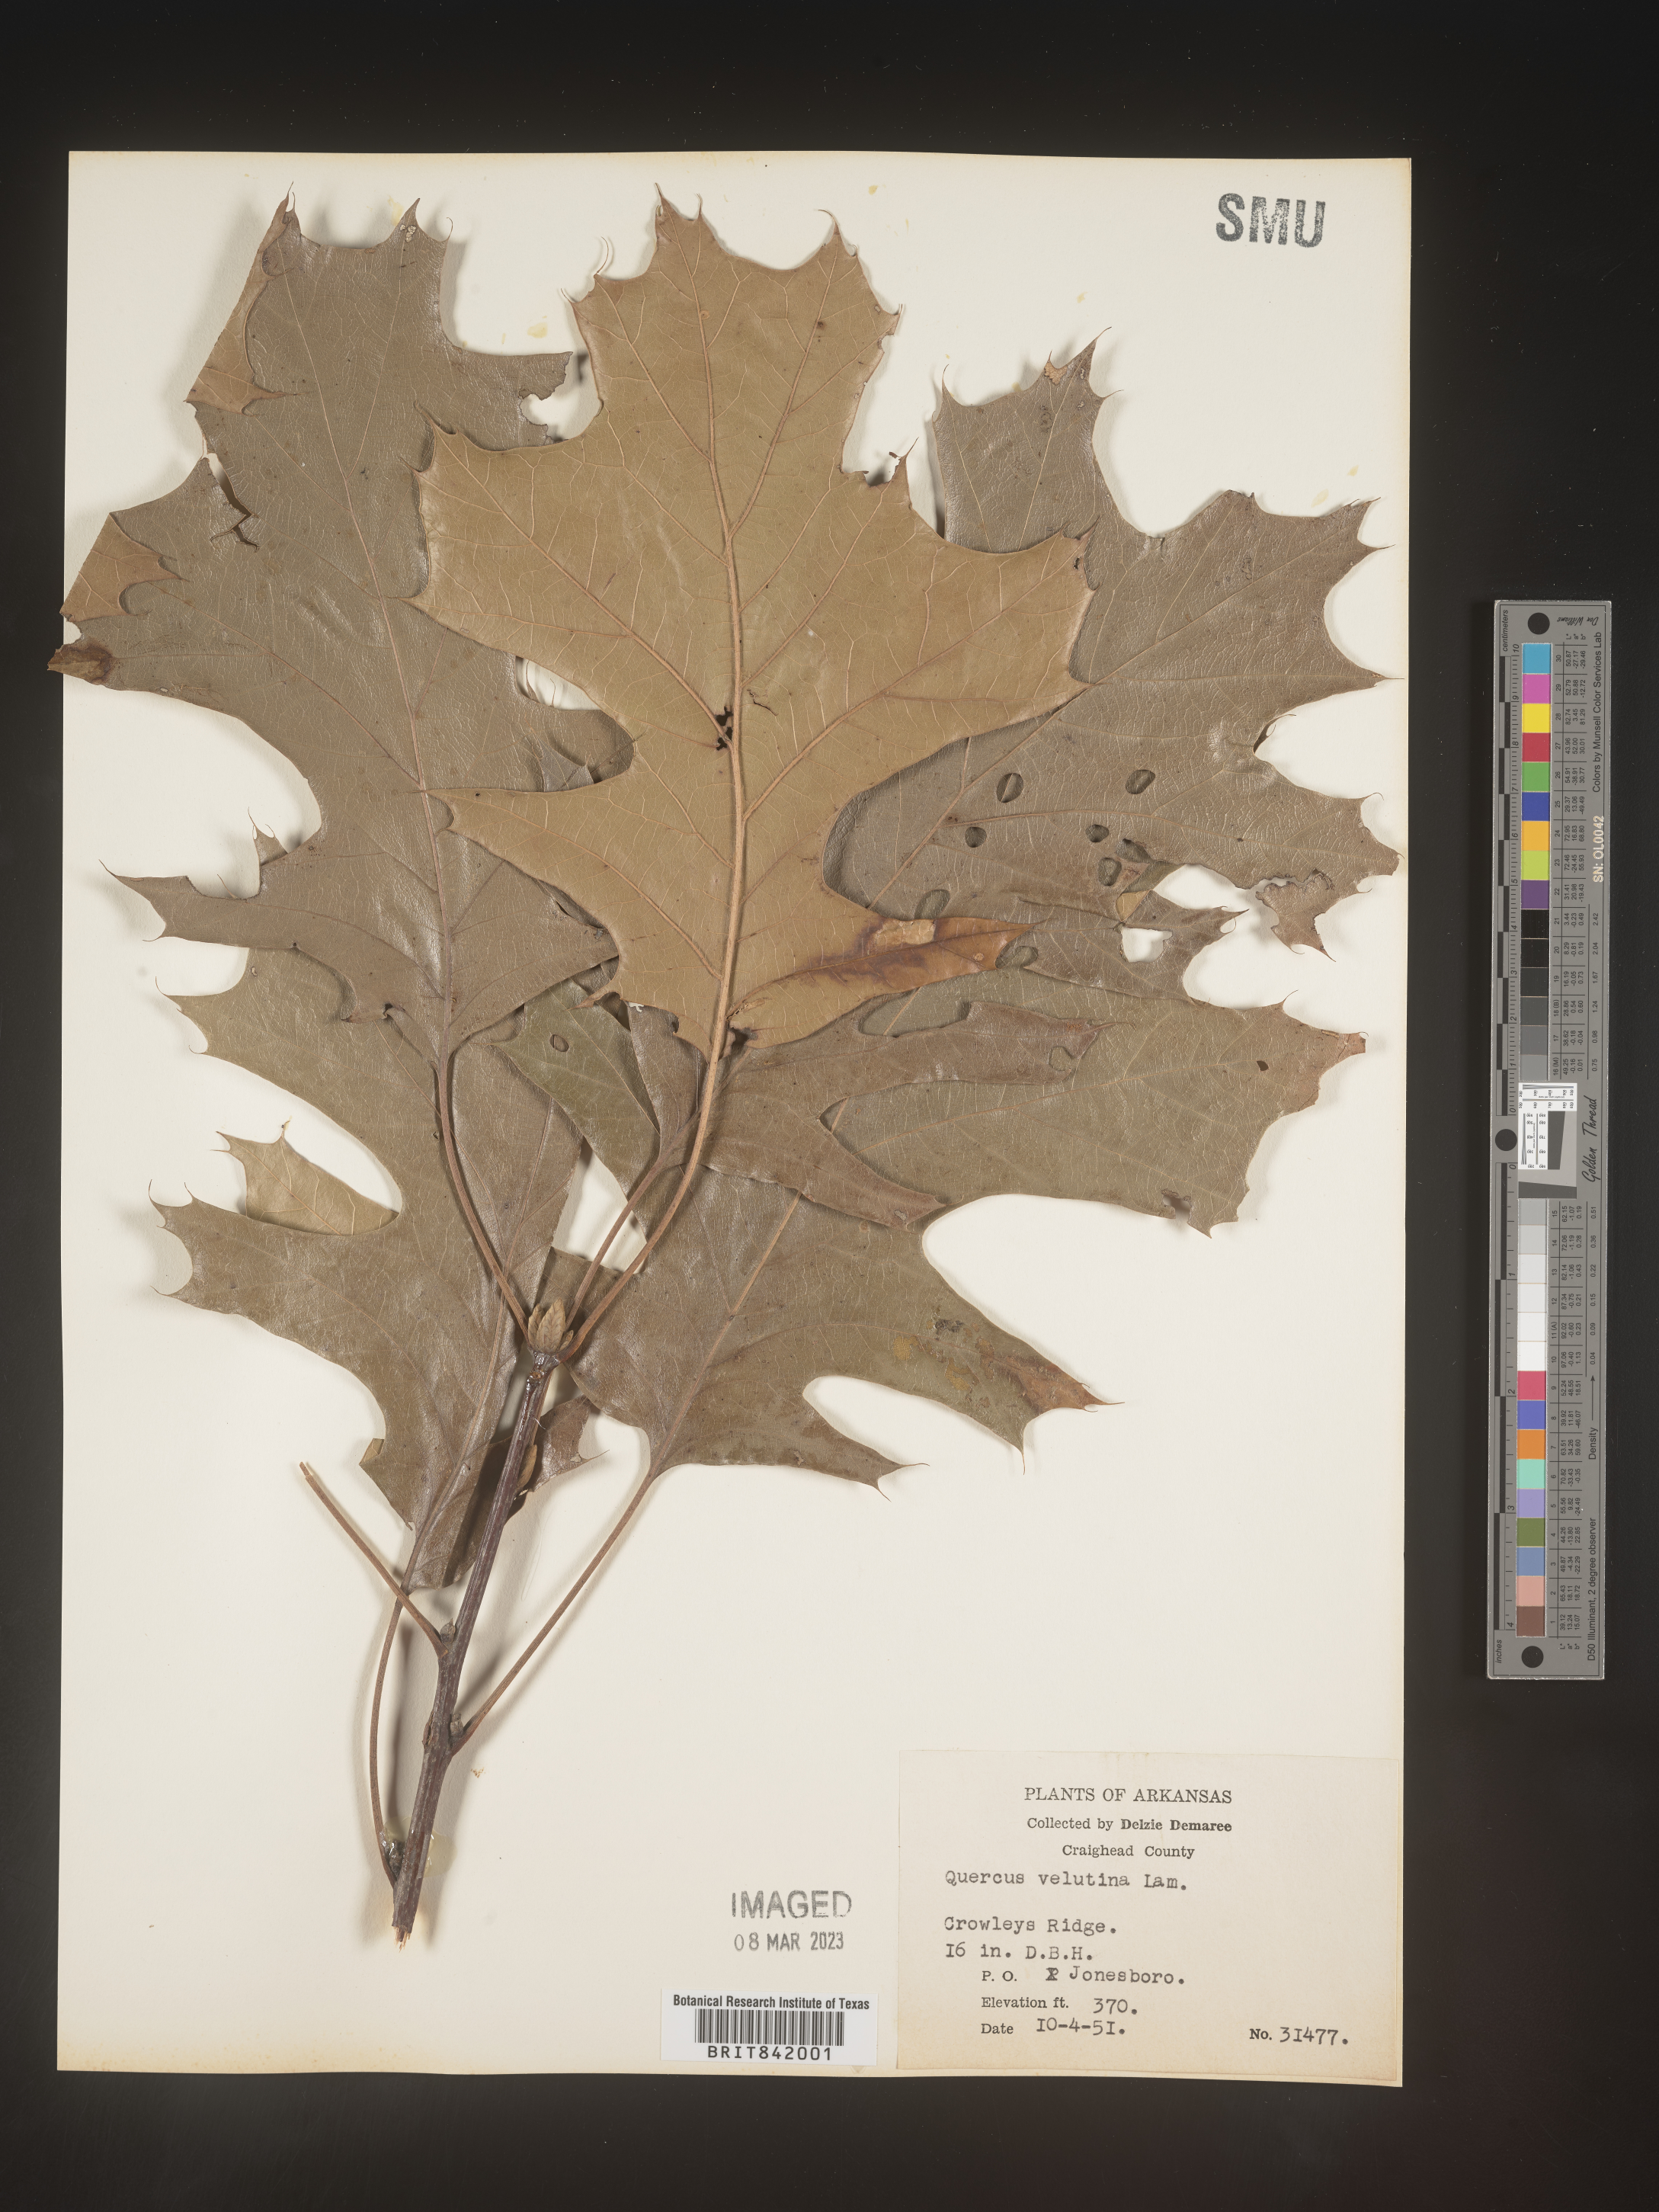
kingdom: Plantae
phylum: Tracheophyta
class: Magnoliopsida
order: Fagales
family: Fagaceae
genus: Quercus
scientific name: Quercus velutina
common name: Black oak
